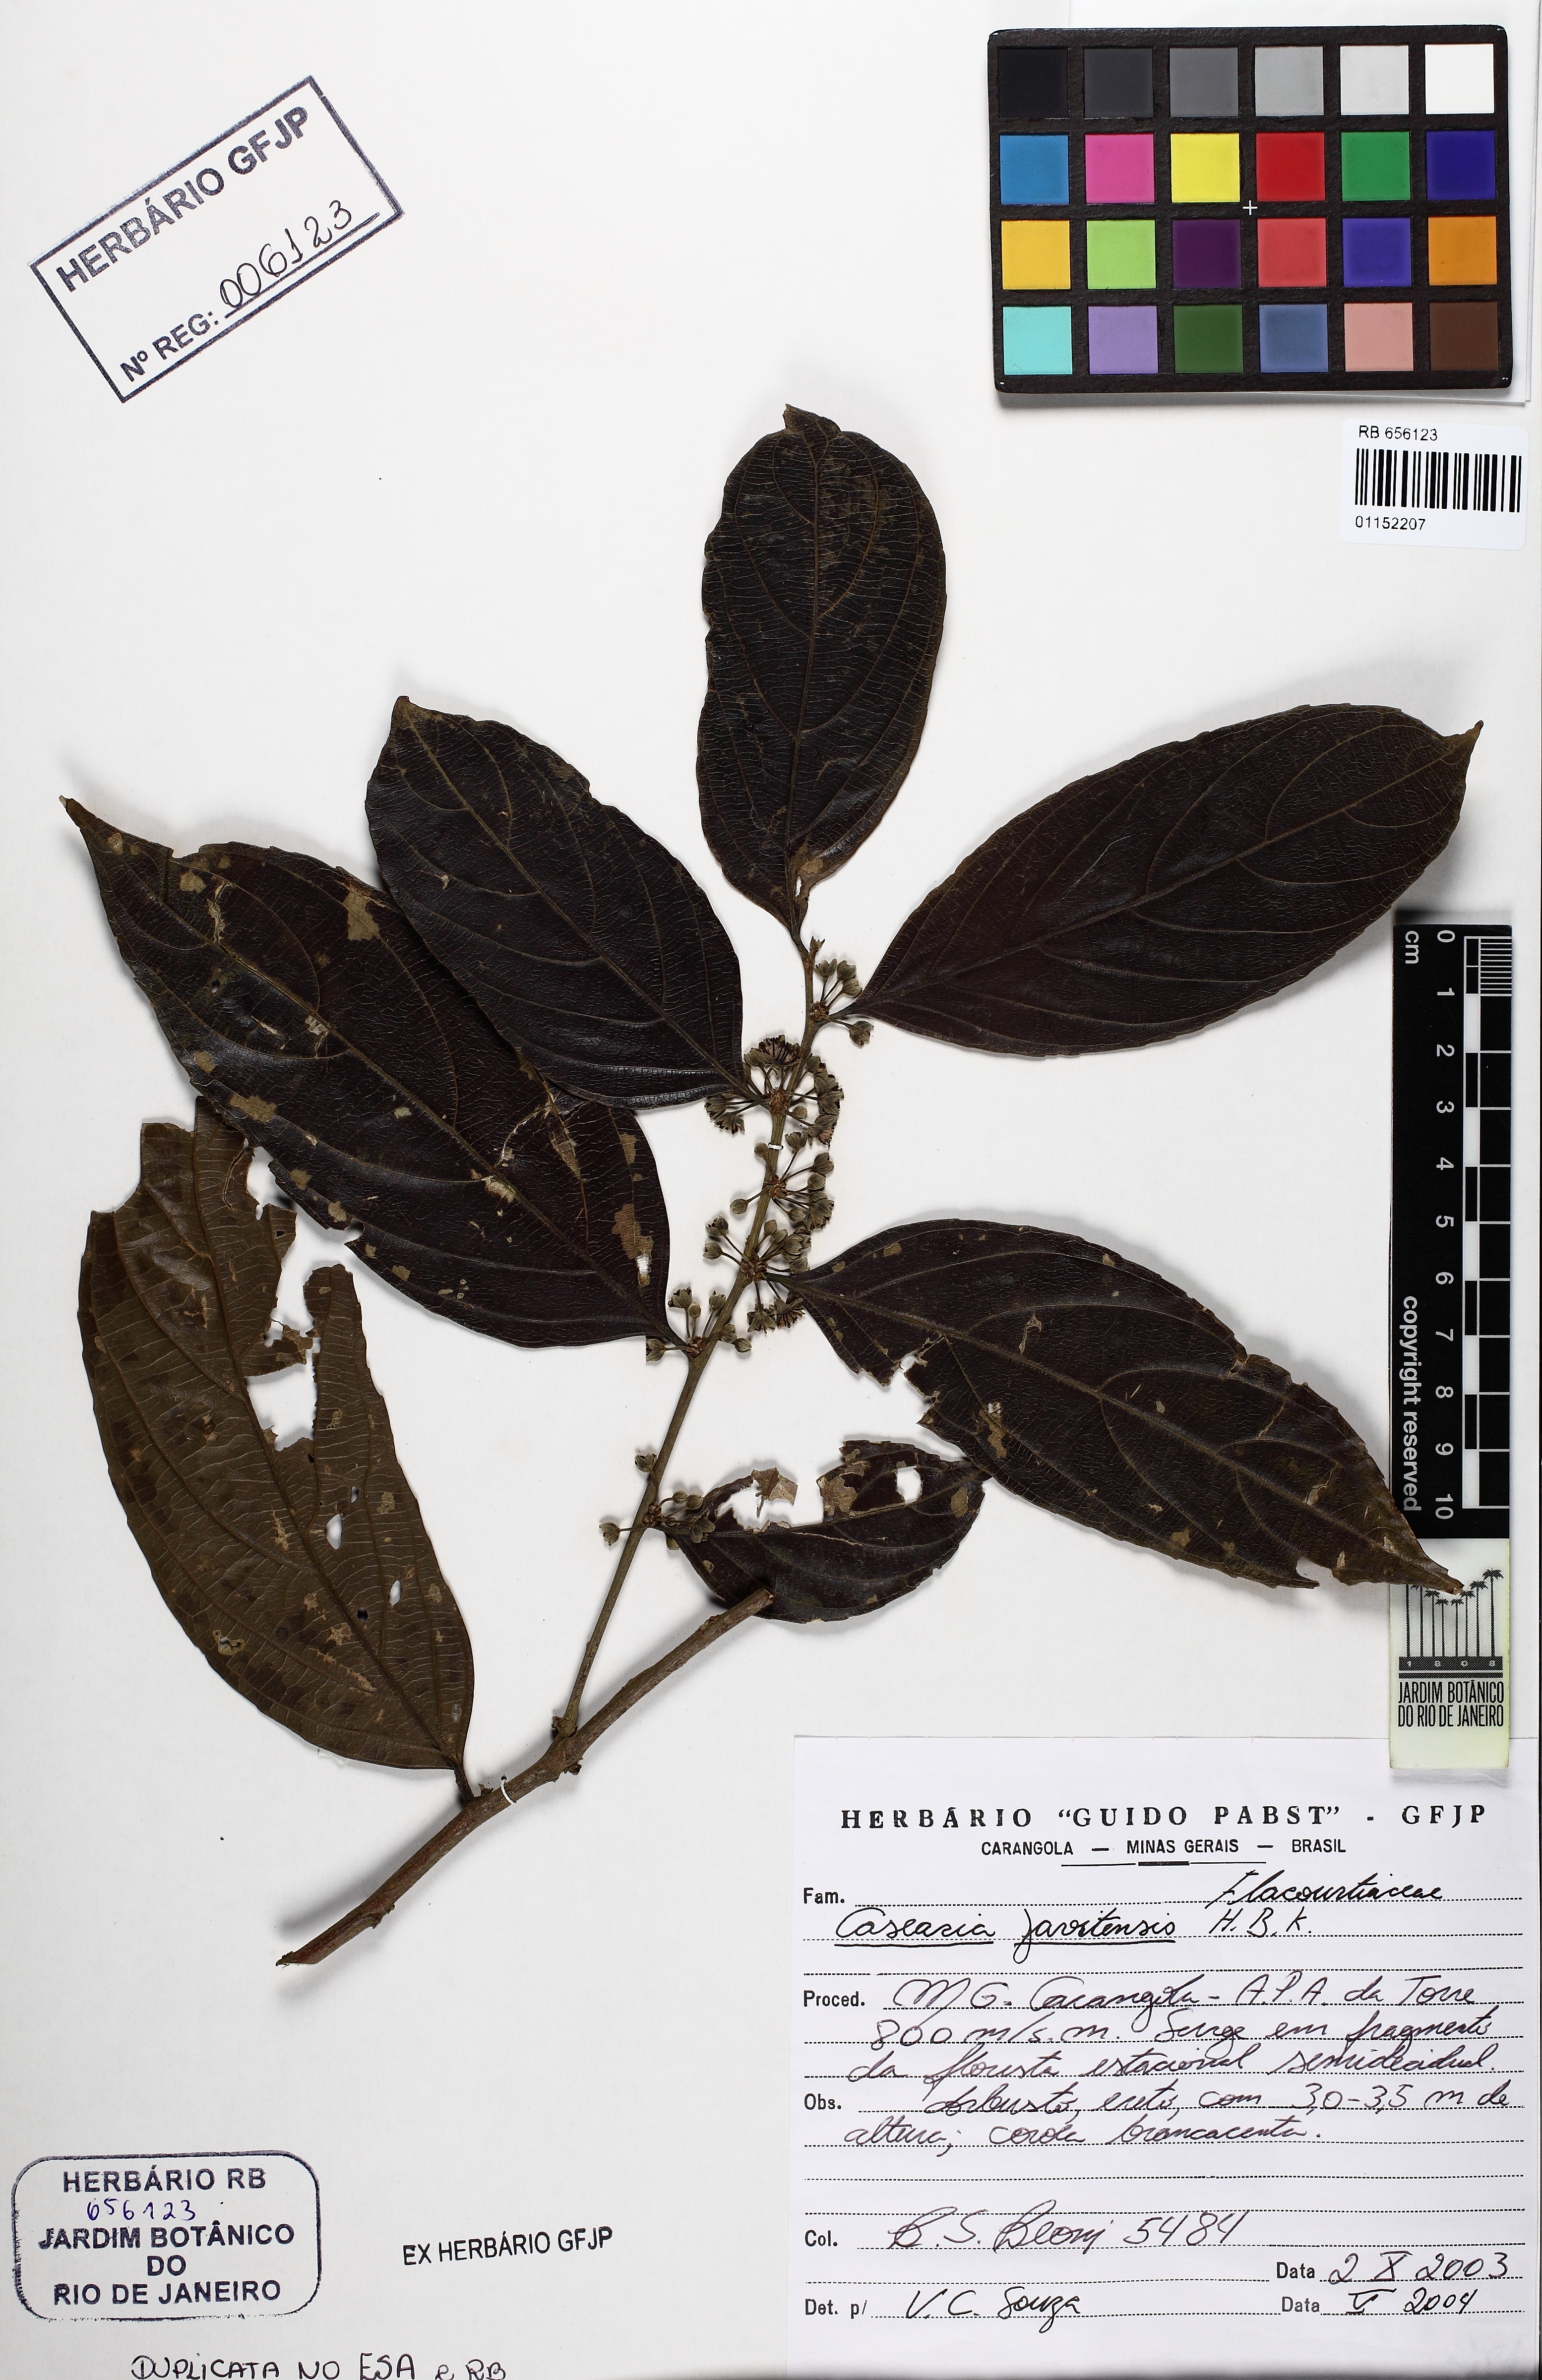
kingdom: Plantae
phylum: Tracheophyta
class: Magnoliopsida
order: Malpighiales
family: Salicaceae
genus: Piparea
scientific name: Piparea multiflora
